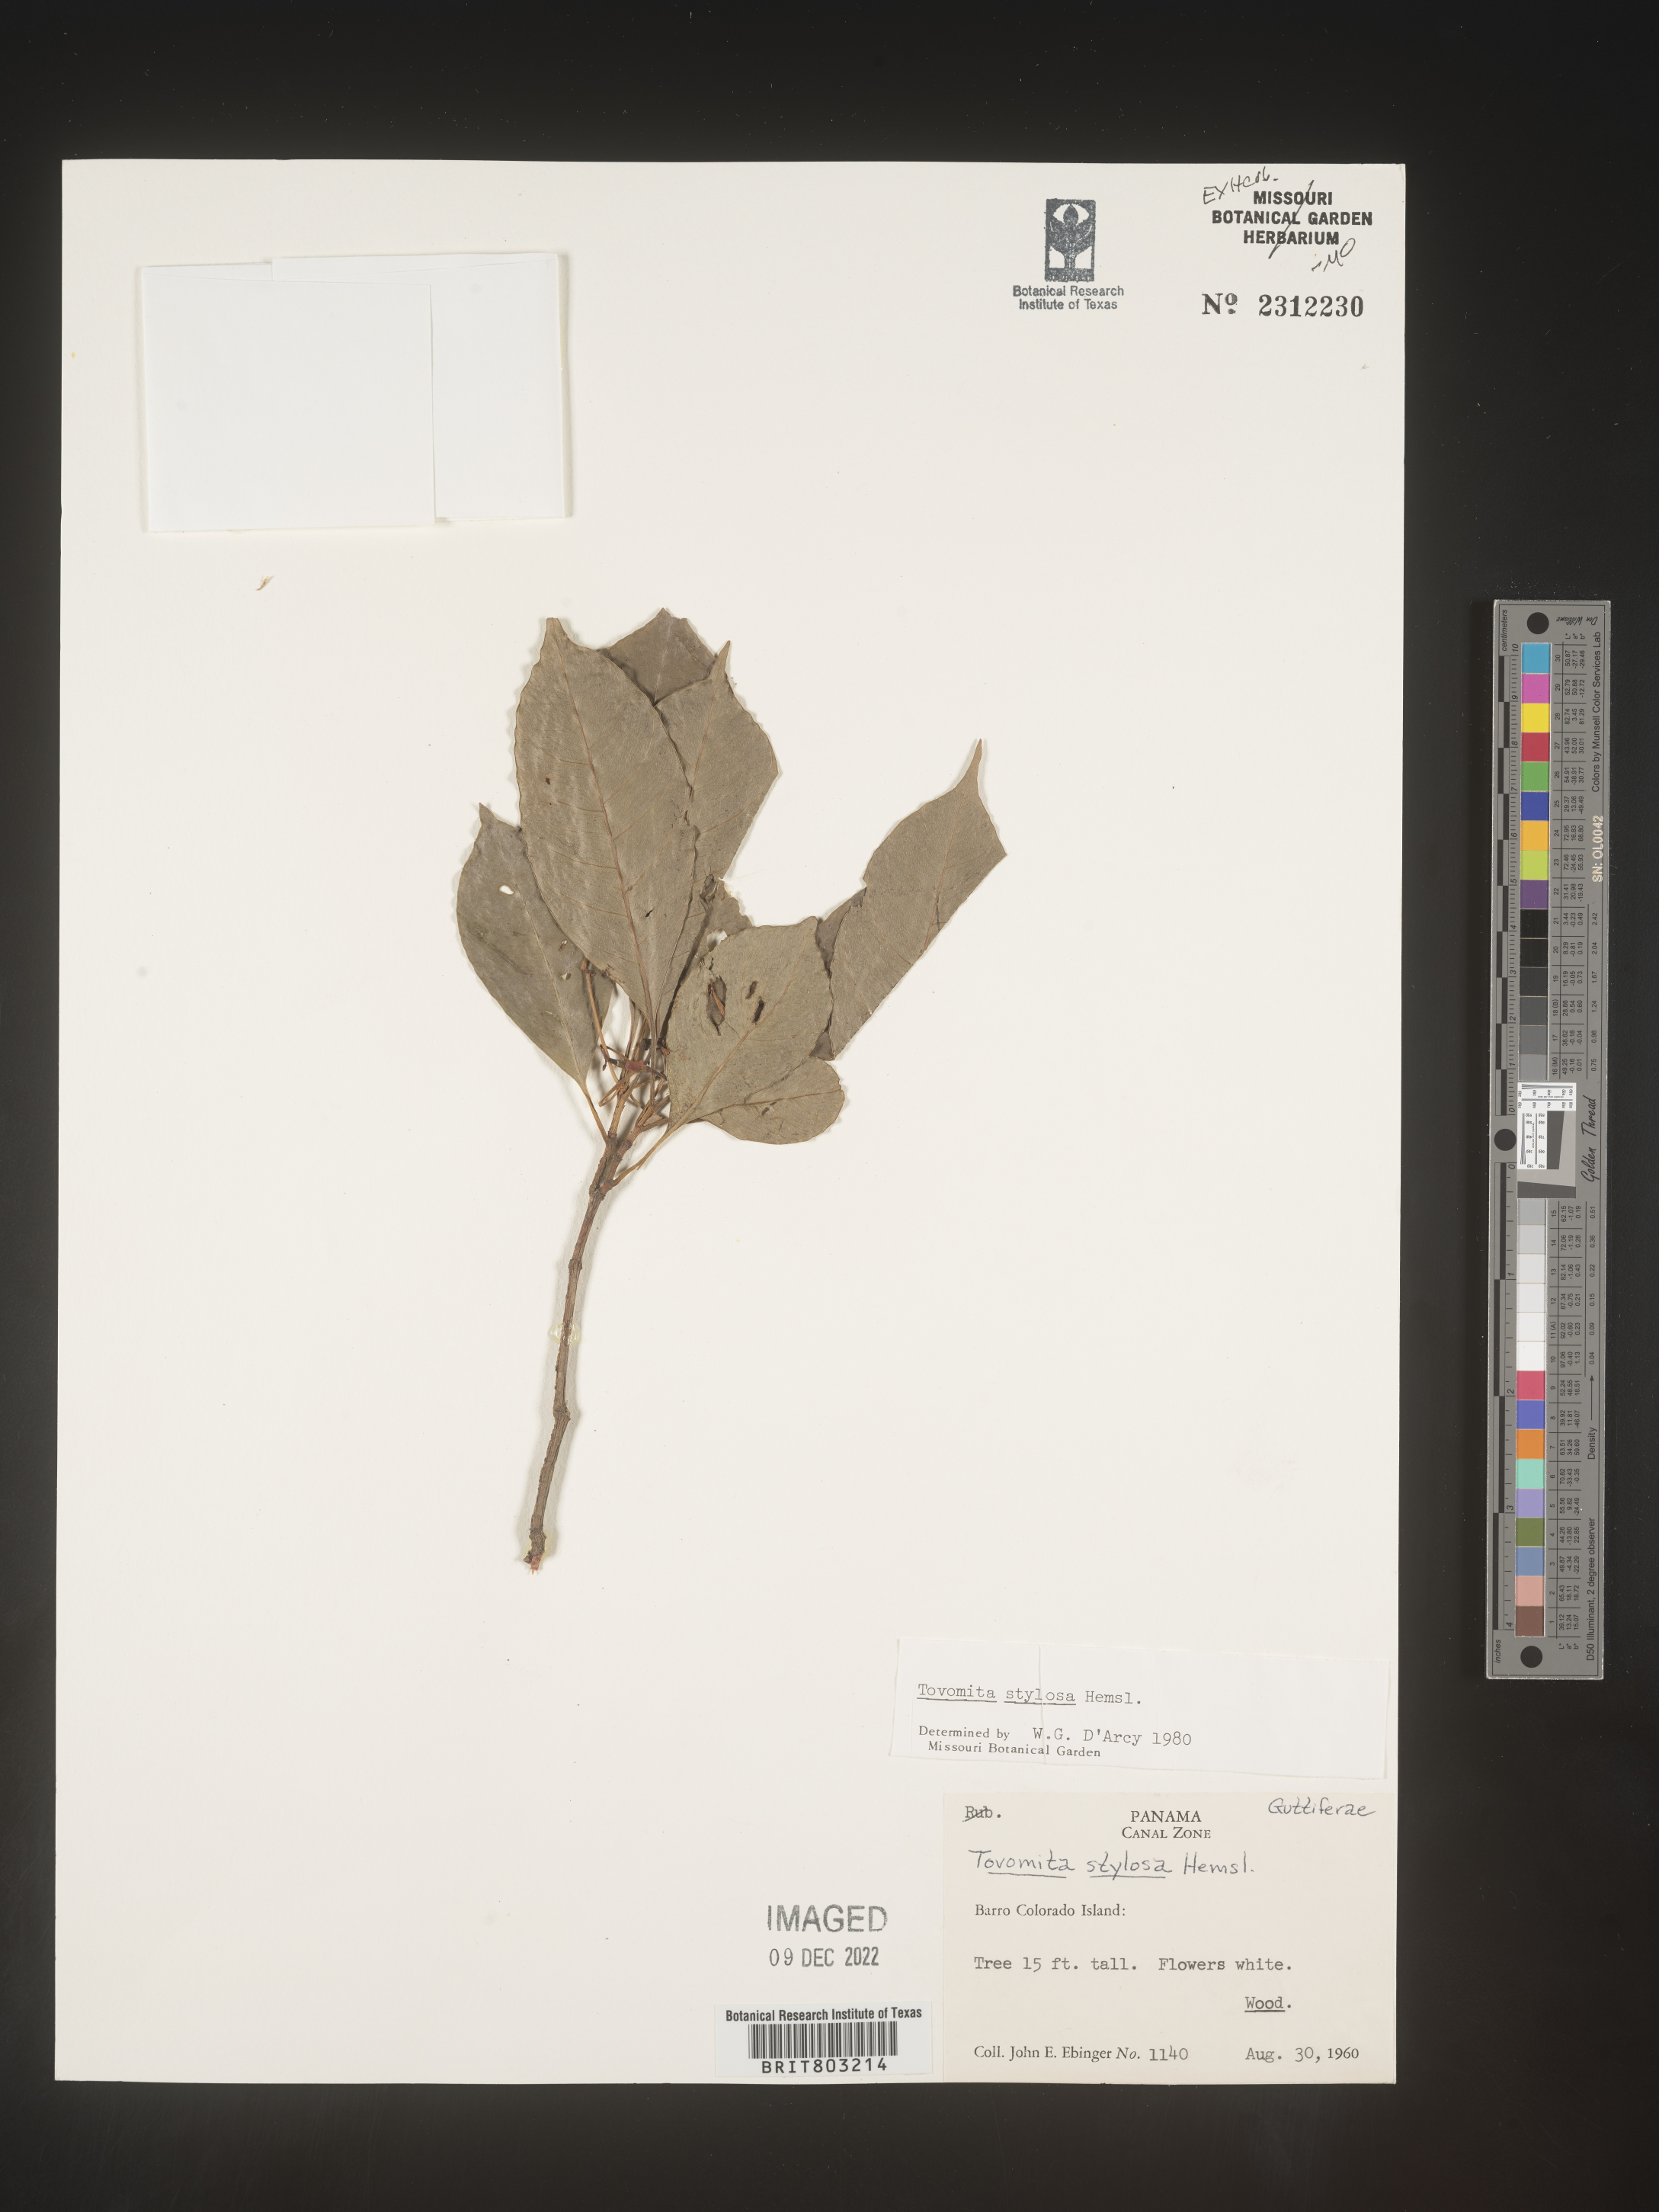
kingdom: Plantae
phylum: Tracheophyta
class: Magnoliopsida
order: Malpighiales
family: Clusiaceae
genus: Tovomita
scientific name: Tovomita
